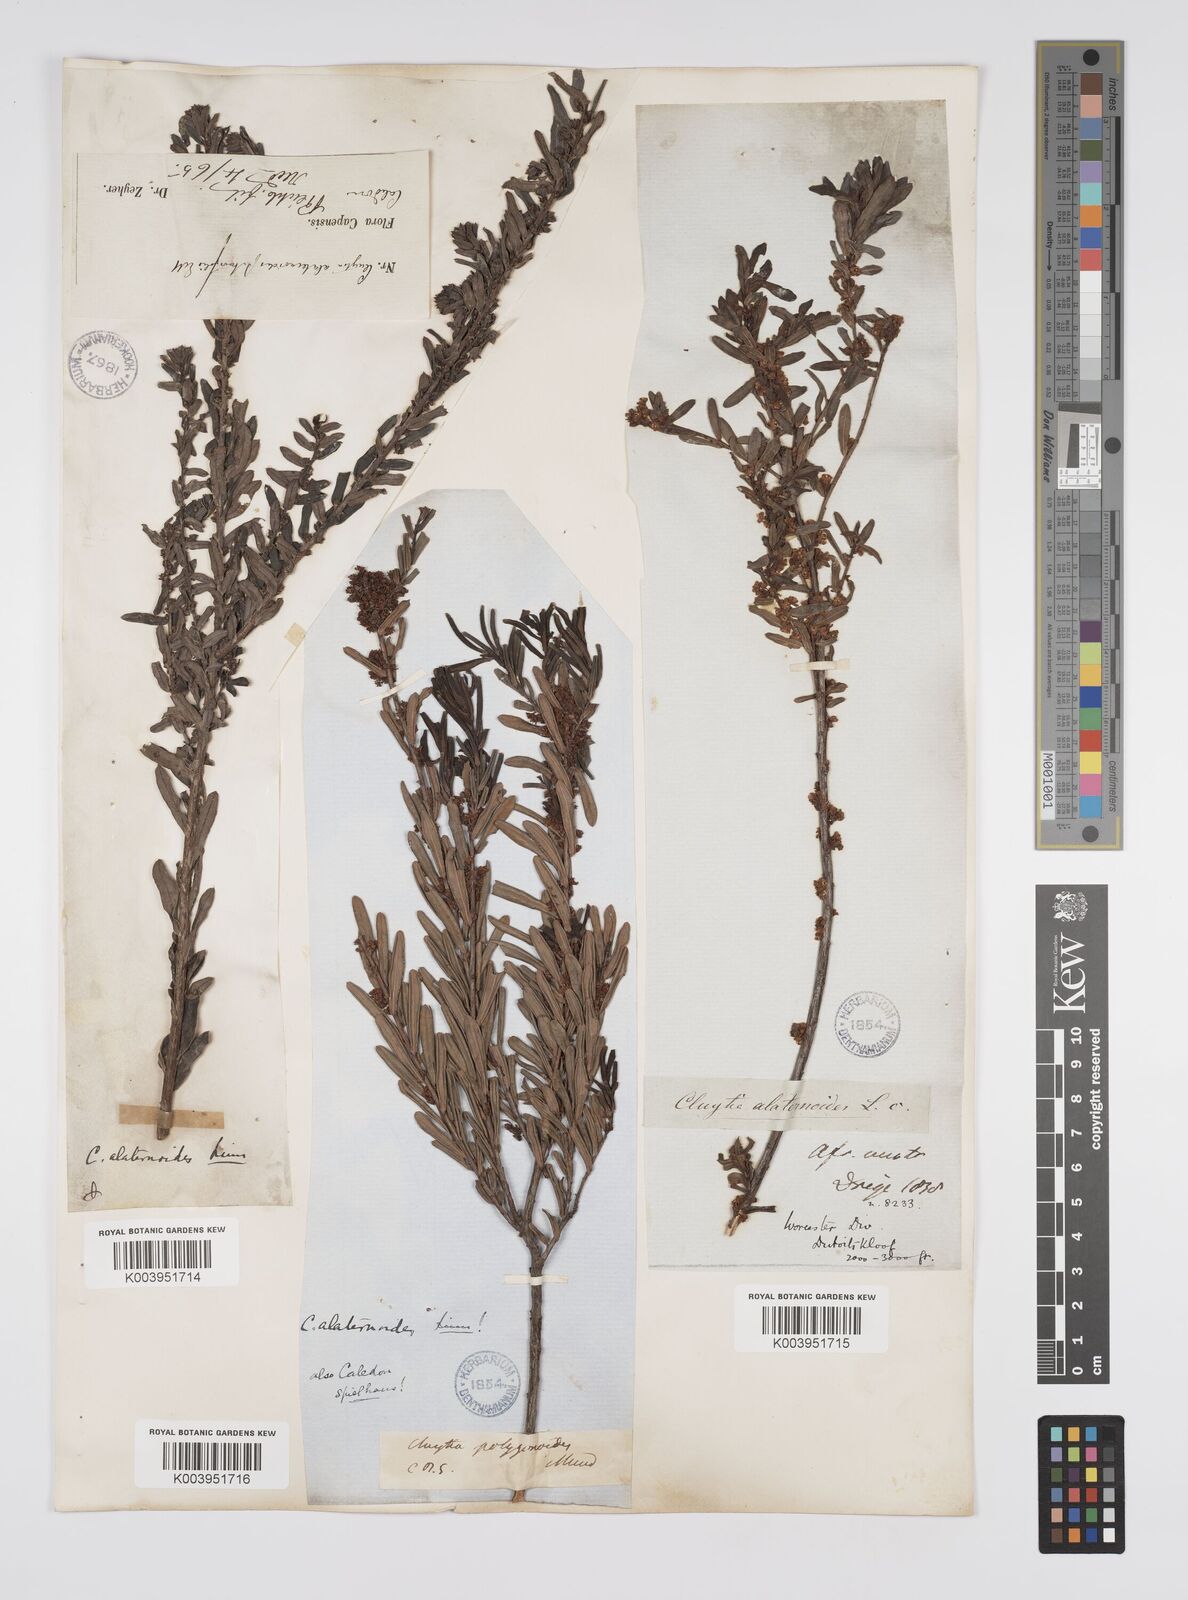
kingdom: Plantae
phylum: Tracheophyta
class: Magnoliopsida
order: Malpighiales
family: Peraceae
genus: Clutia
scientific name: Clutia alaternoides
